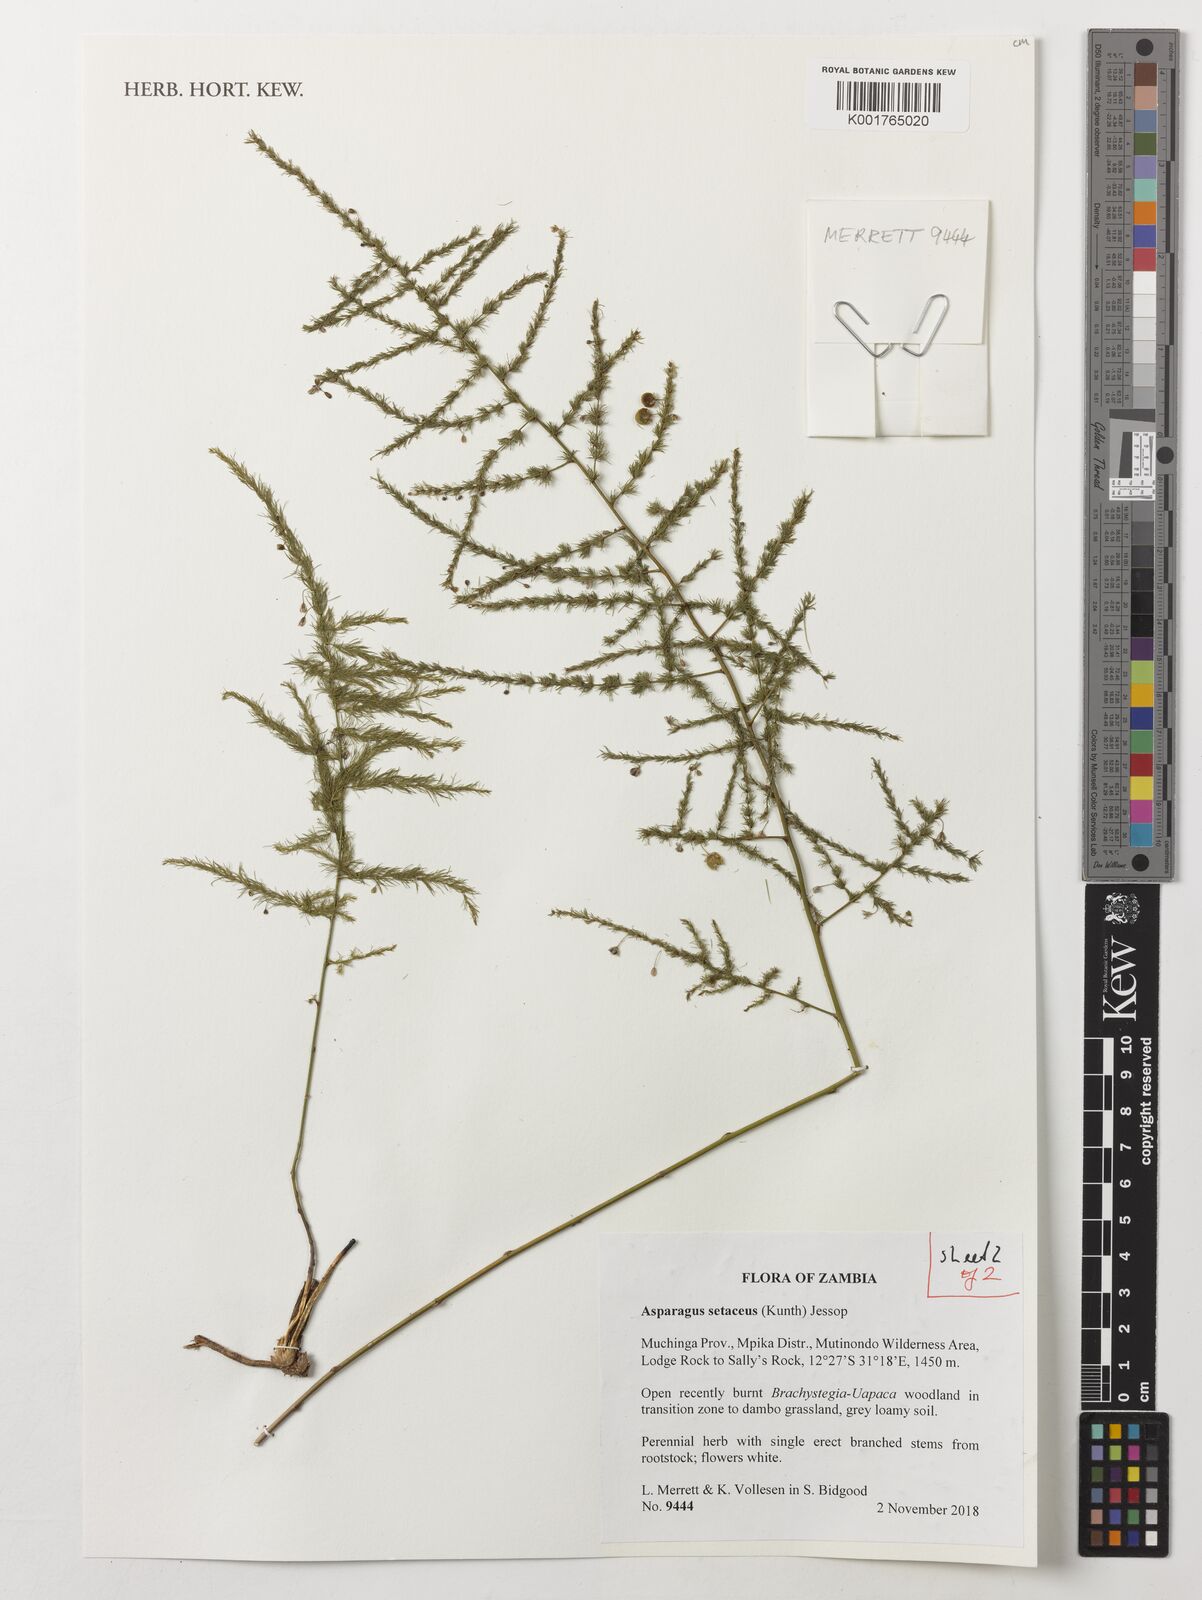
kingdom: Plantae
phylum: Tracheophyta
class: Liliopsida
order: Asparagales
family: Asparagaceae
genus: Asparagus
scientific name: Asparagus setaceus
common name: Common asparagus fern
